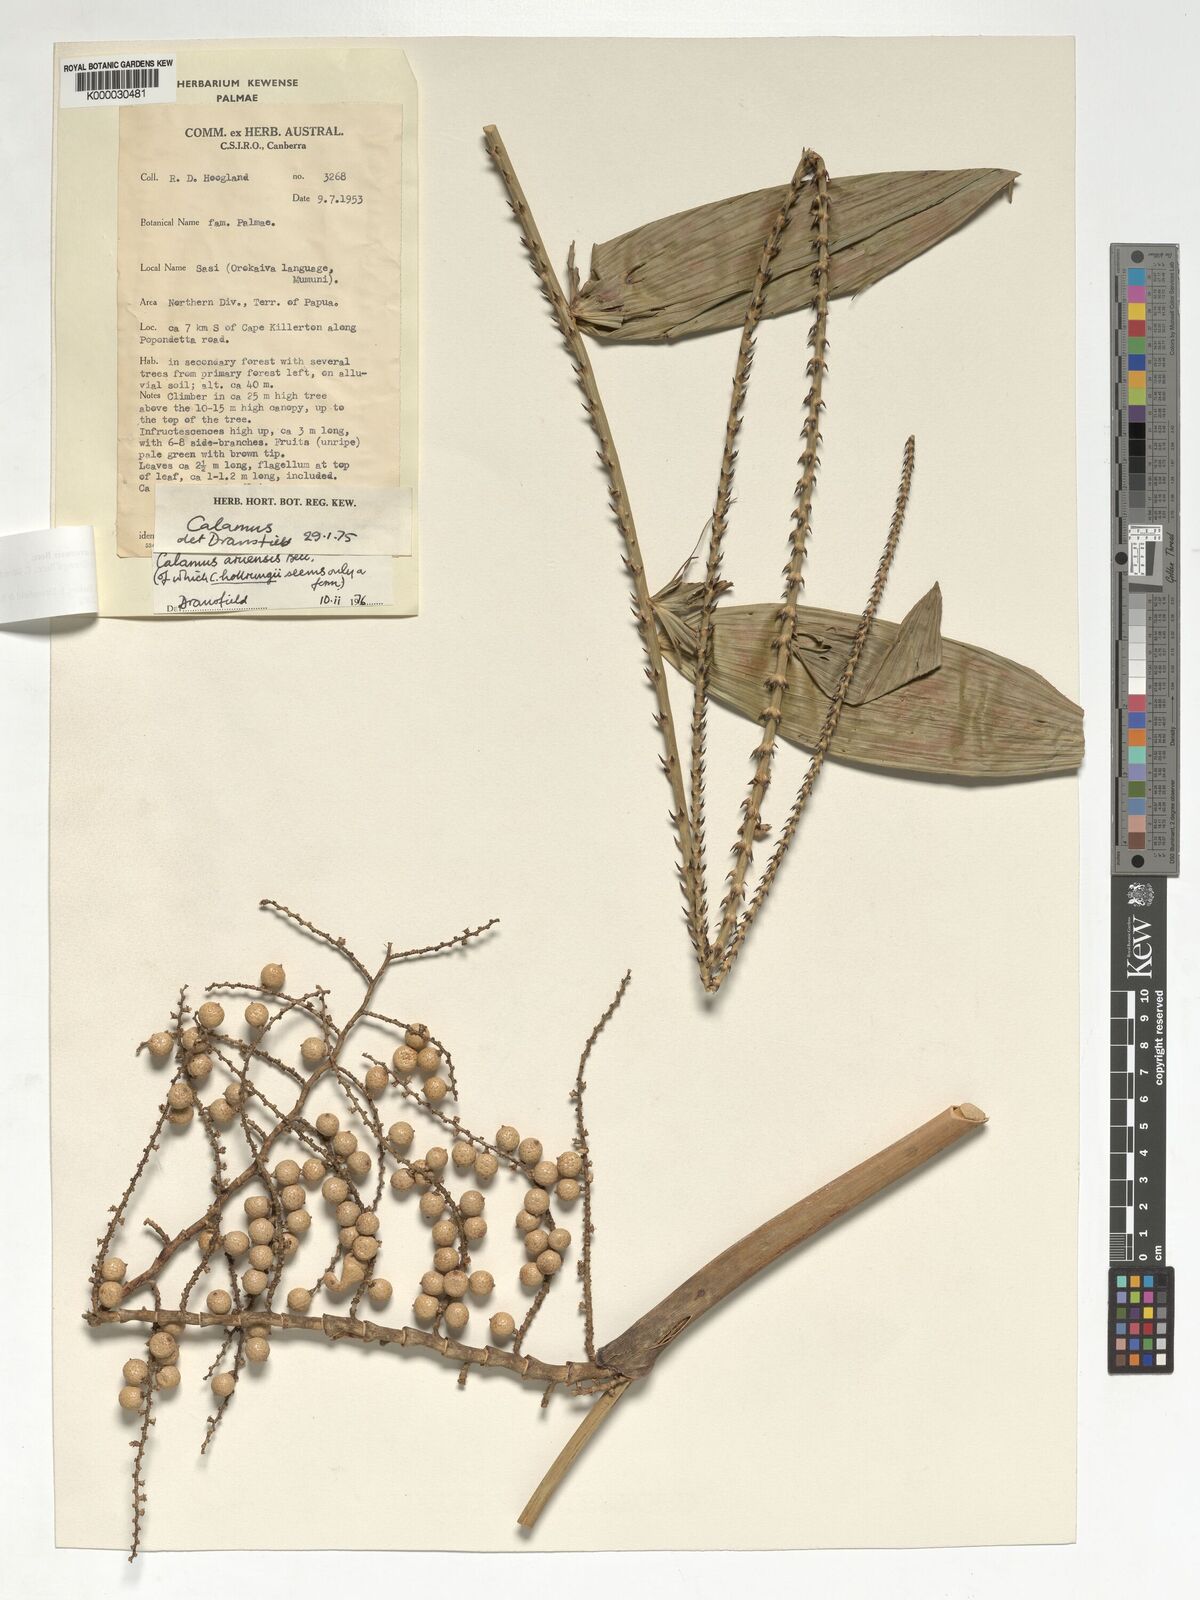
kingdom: Plantae
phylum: Tracheophyta
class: Liliopsida
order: Arecales
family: Arecaceae
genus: Calamus
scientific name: Calamus aruensis
